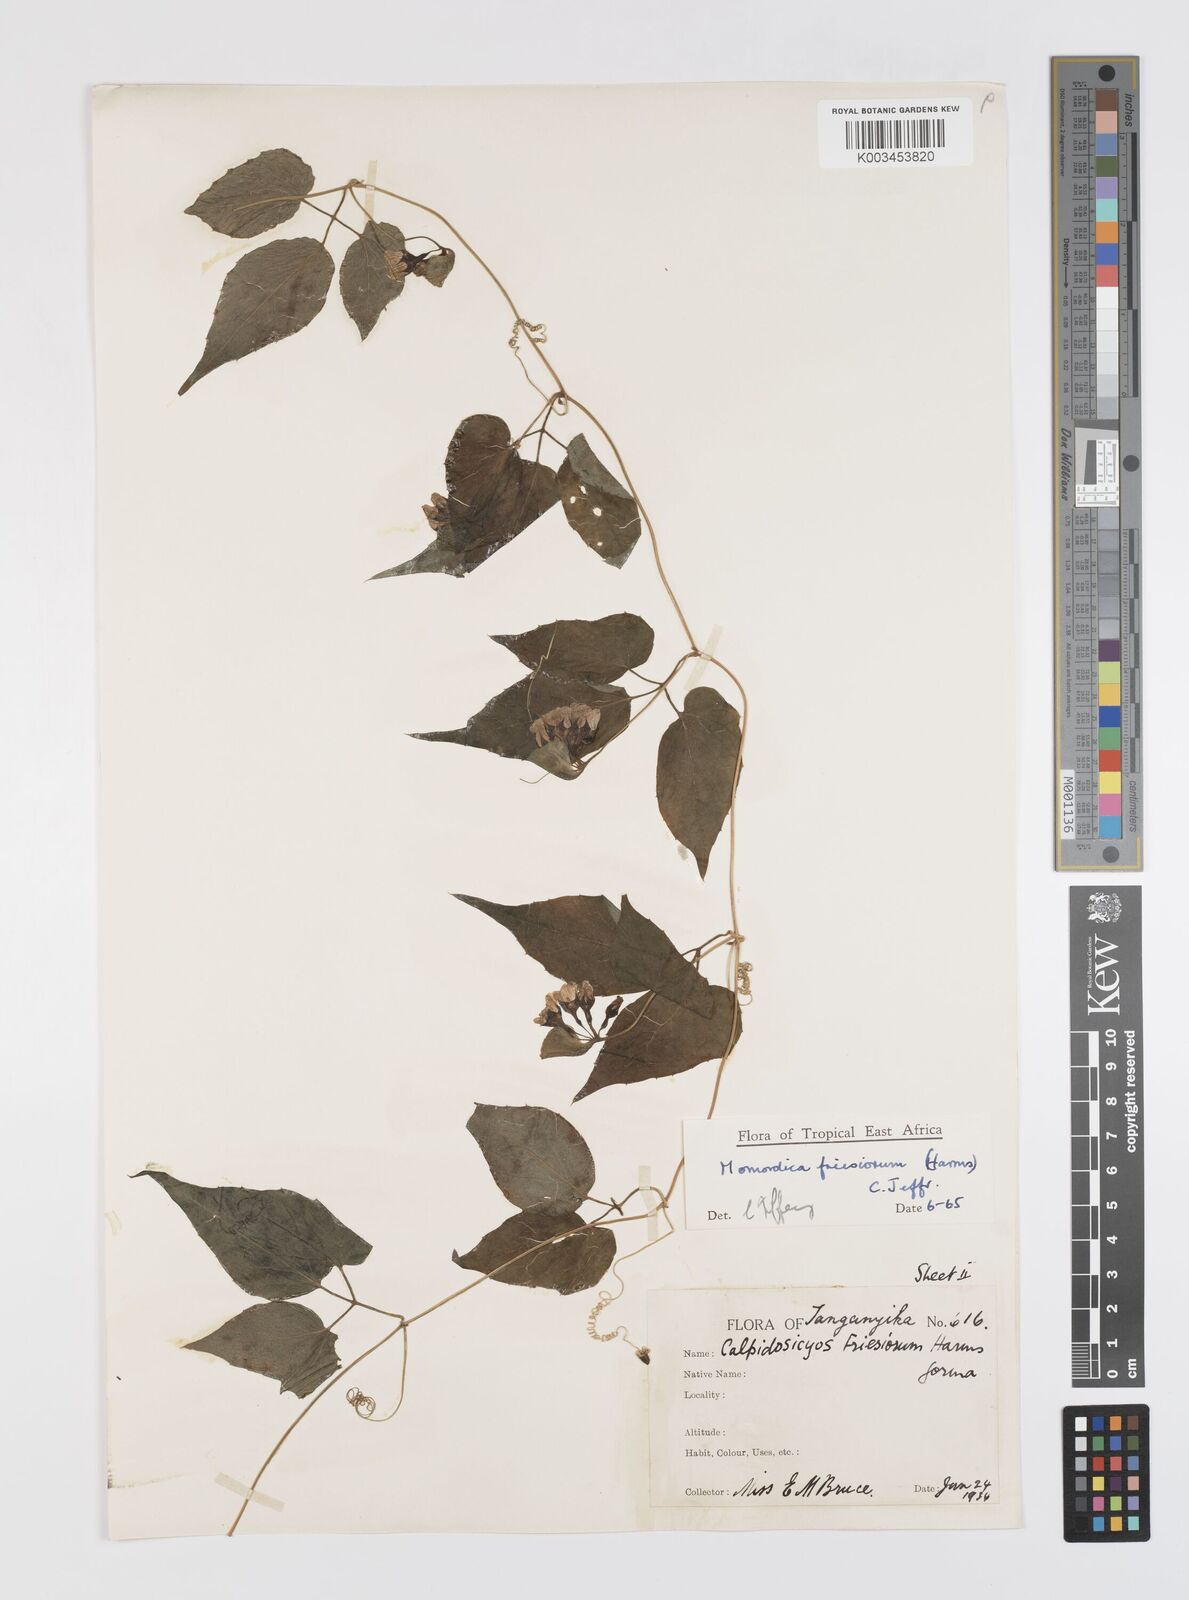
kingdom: Plantae
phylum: Tracheophyta
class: Magnoliopsida
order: Cucurbitales
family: Cucurbitaceae
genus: Momordica
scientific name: Momordica friesiorum
